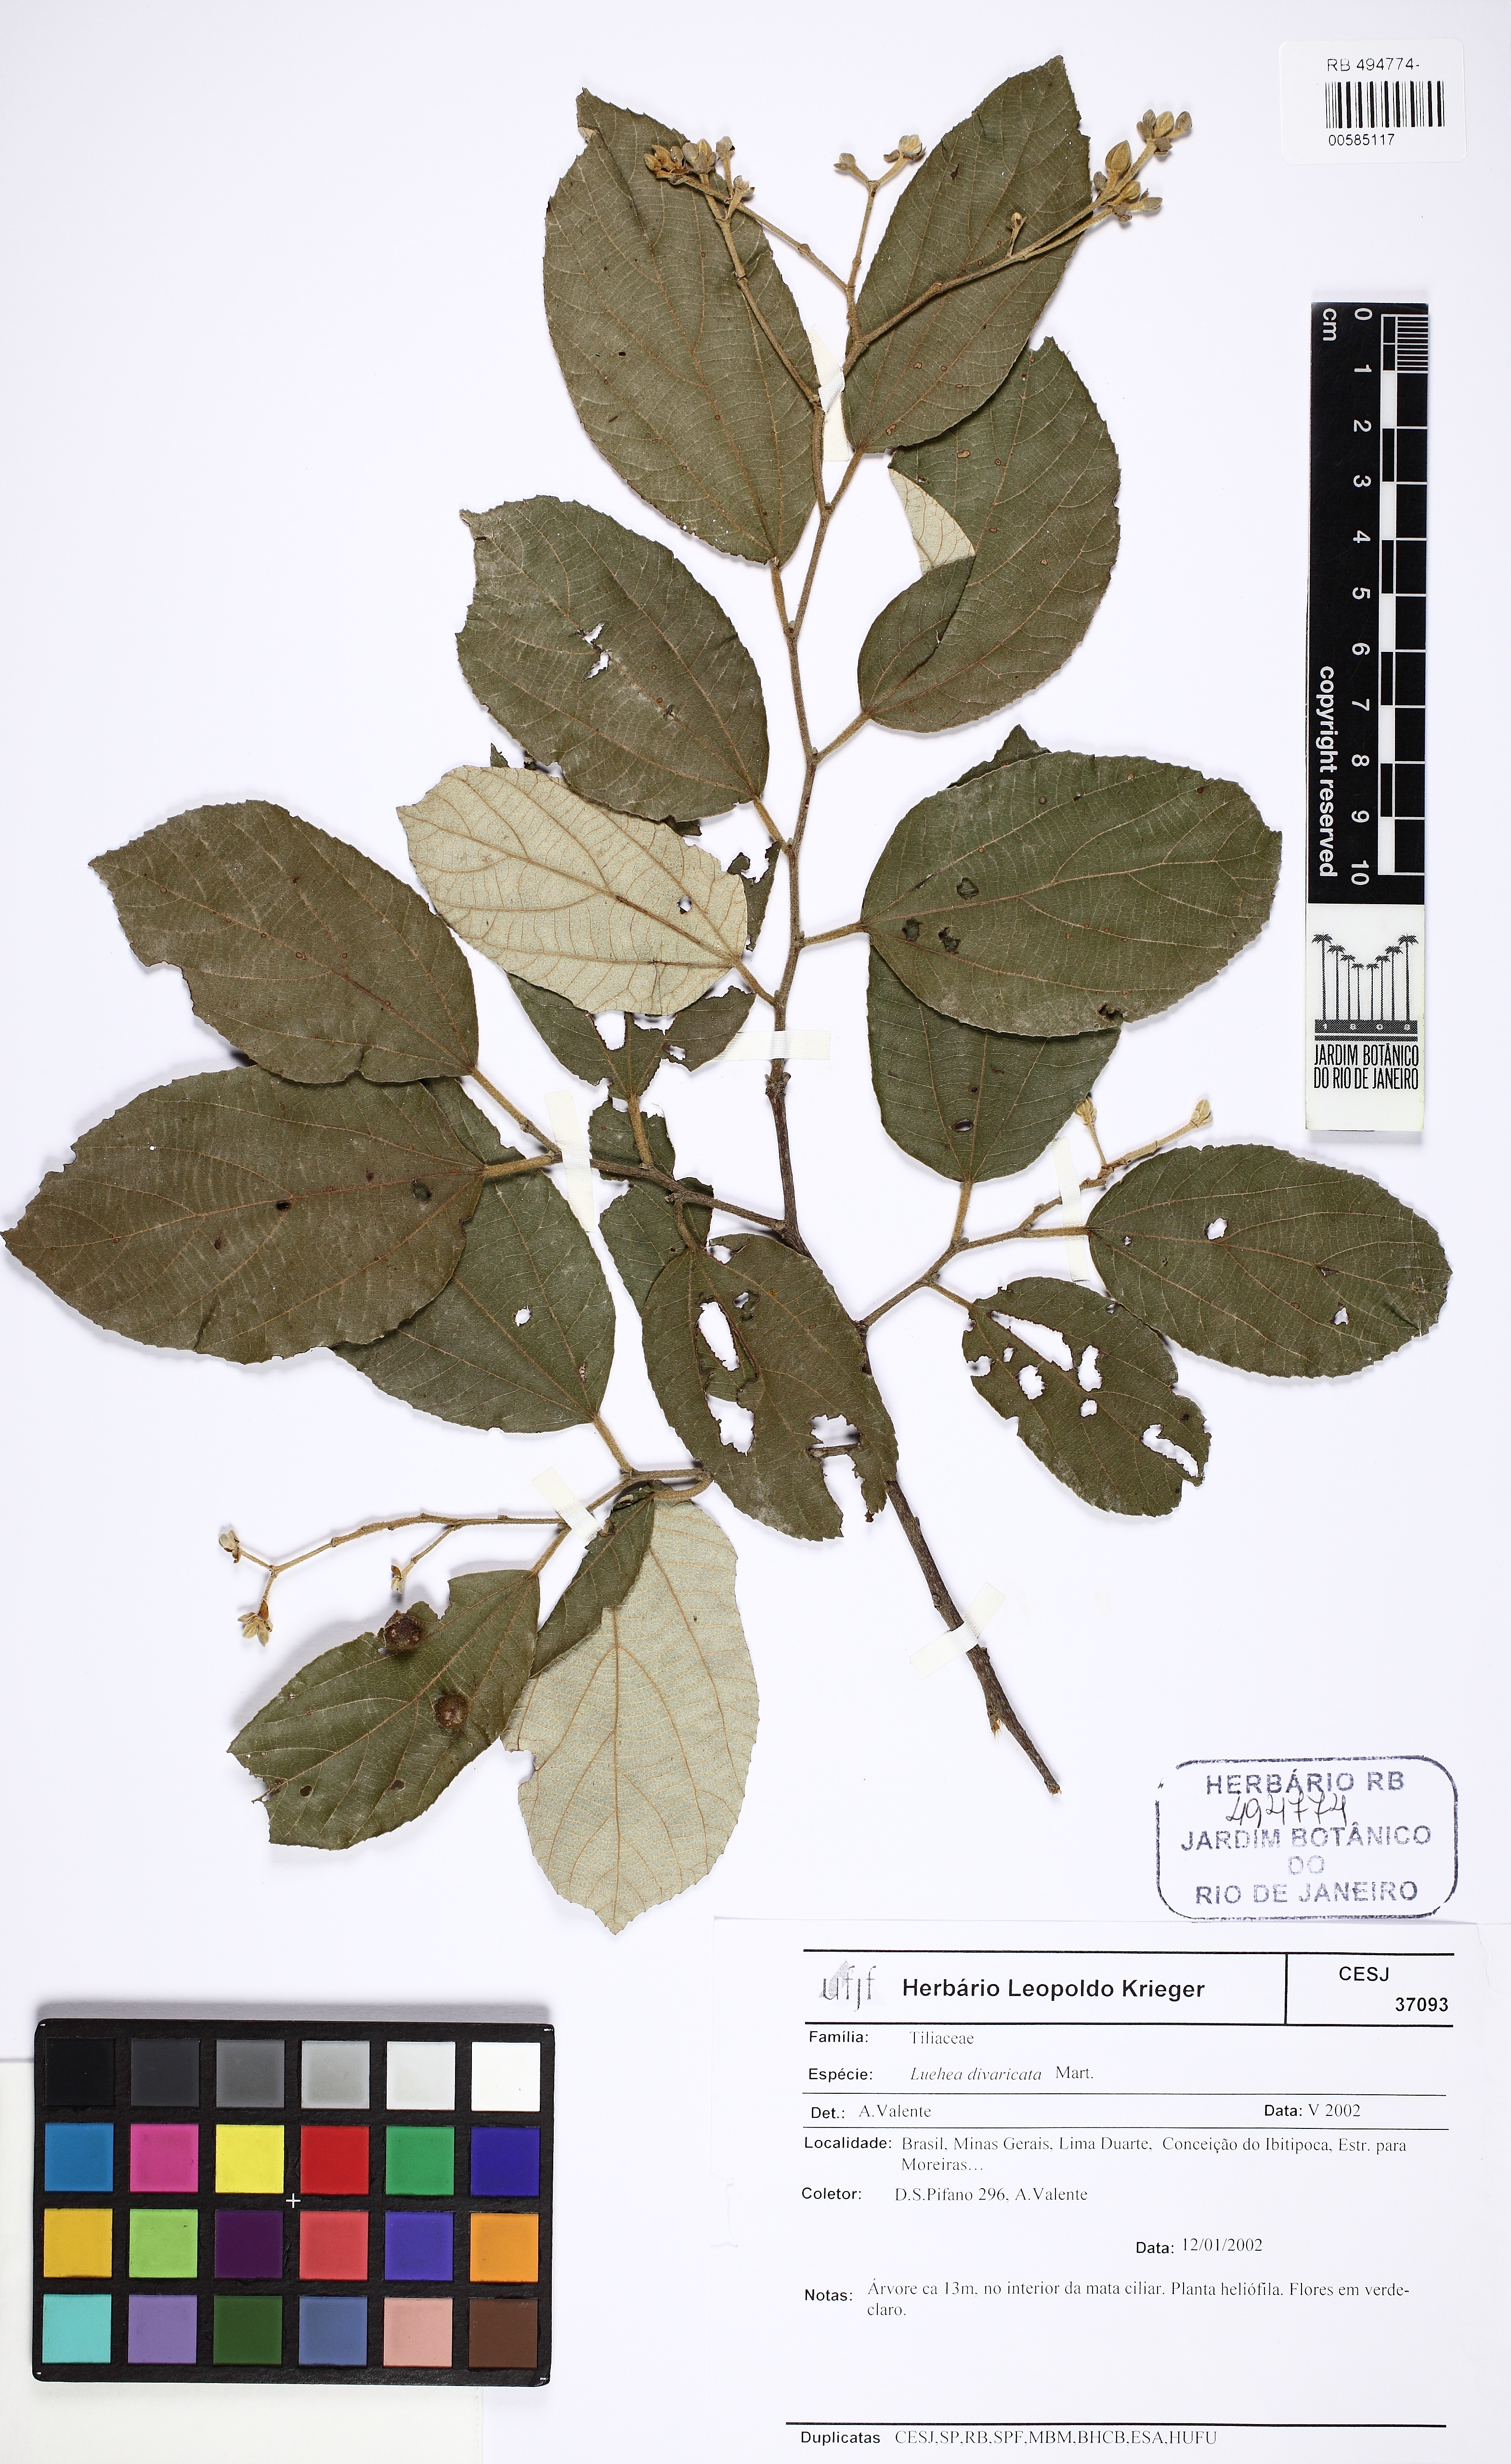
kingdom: Plantae
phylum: Tracheophyta
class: Magnoliopsida
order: Malvales
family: Malvaceae
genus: Luehea
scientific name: Luehea divaricata
